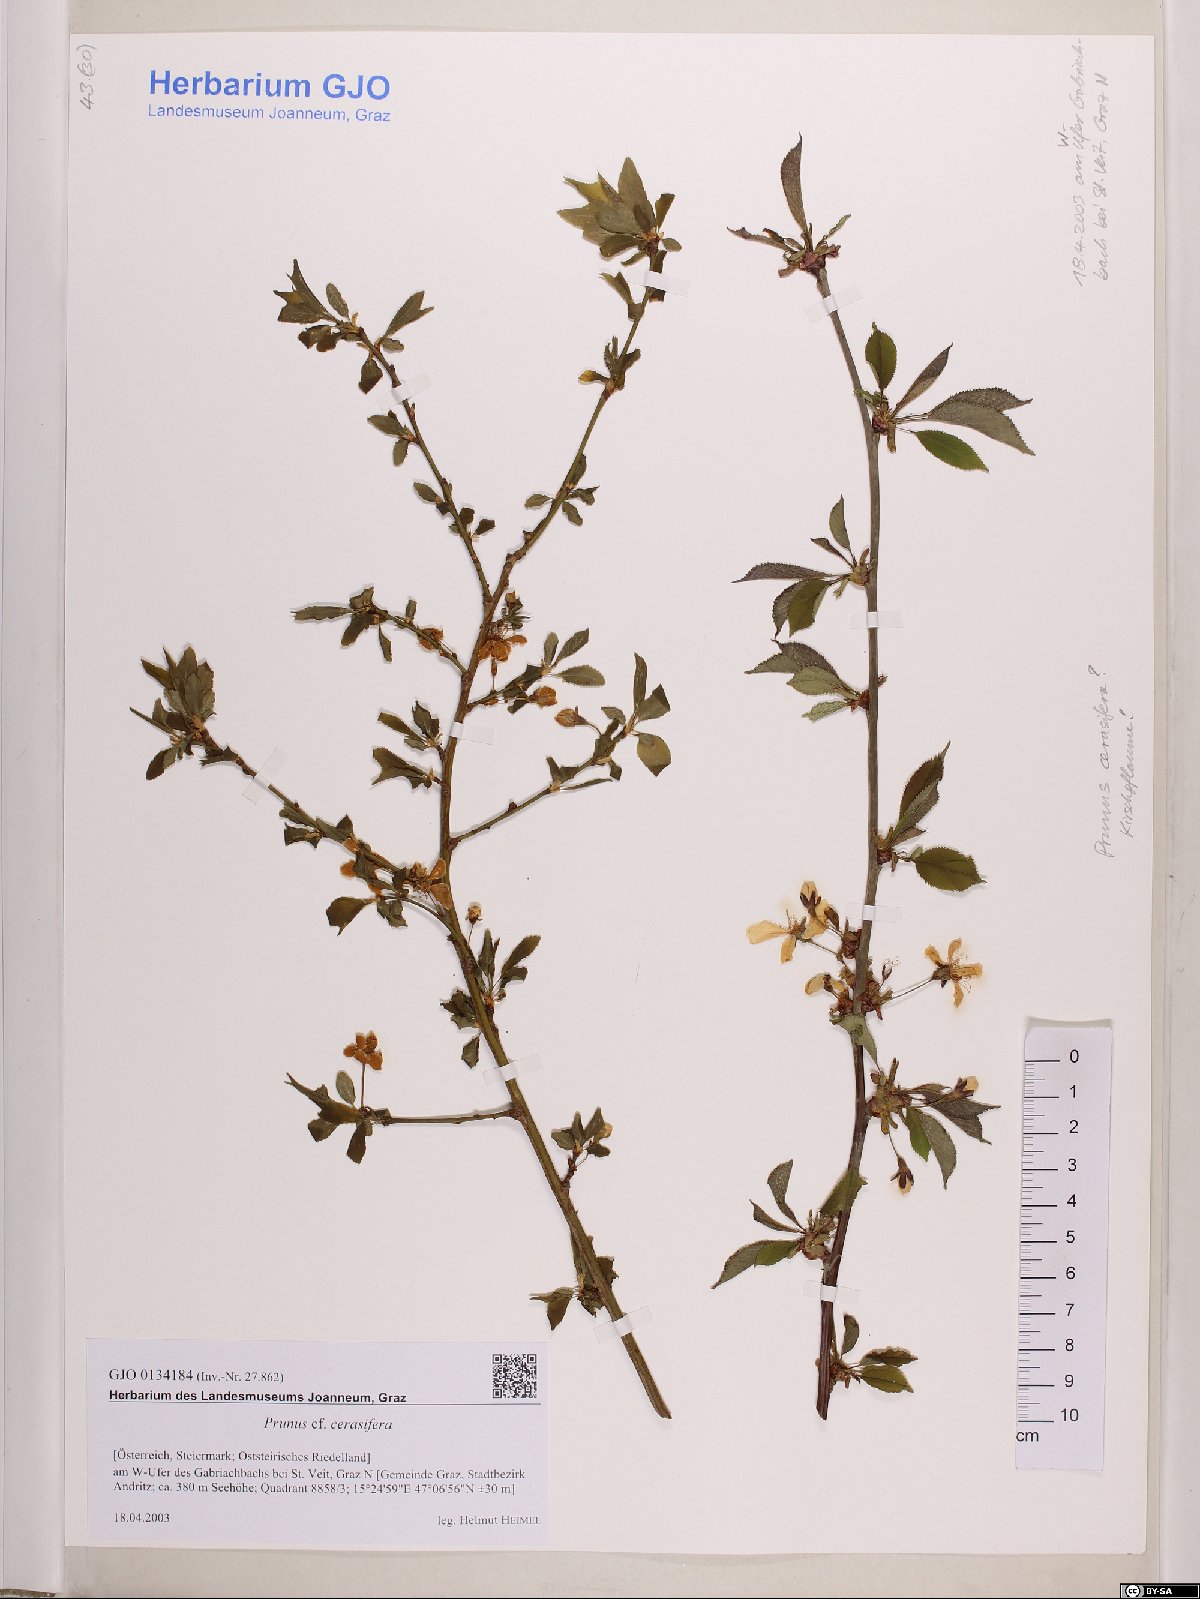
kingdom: Plantae
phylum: Tracheophyta
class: Magnoliopsida
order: Rosales
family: Rosaceae
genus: Prunus
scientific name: Prunus cerasifera
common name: Cherry plum
